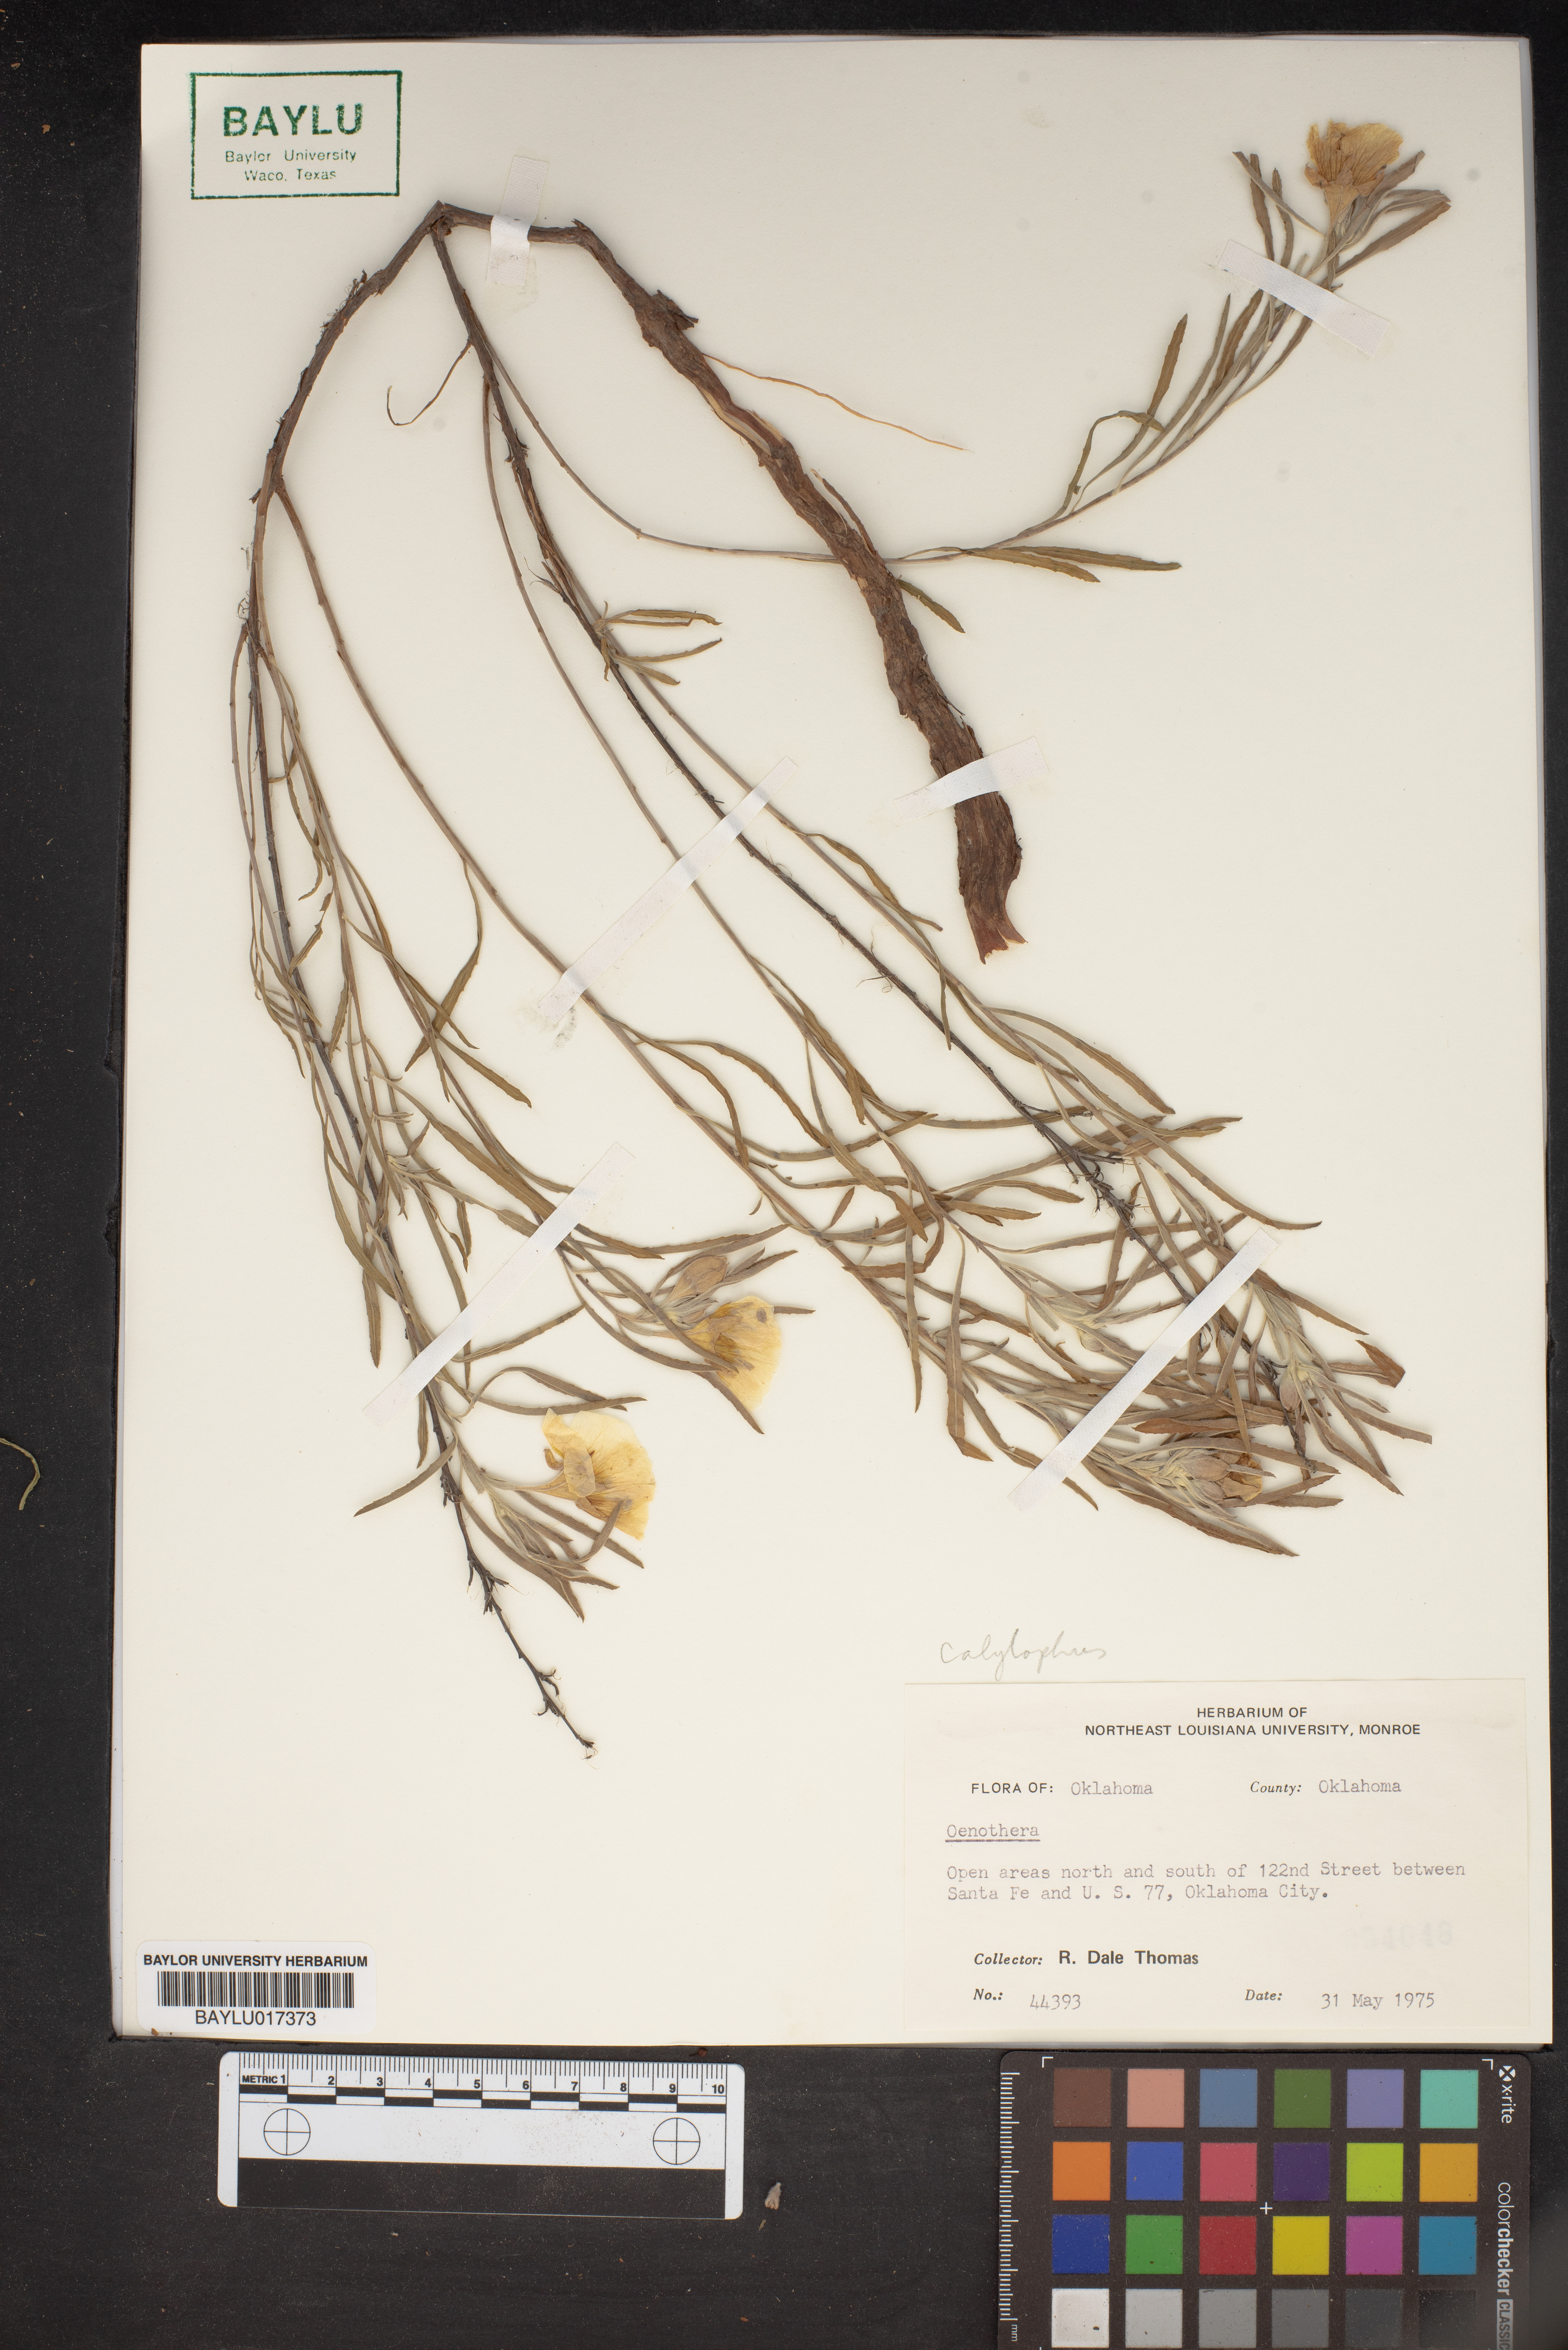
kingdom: Plantae
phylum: Tracheophyta
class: Magnoliopsida
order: Myrtales
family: Onagraceae
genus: Oenothera
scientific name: Oenothera
